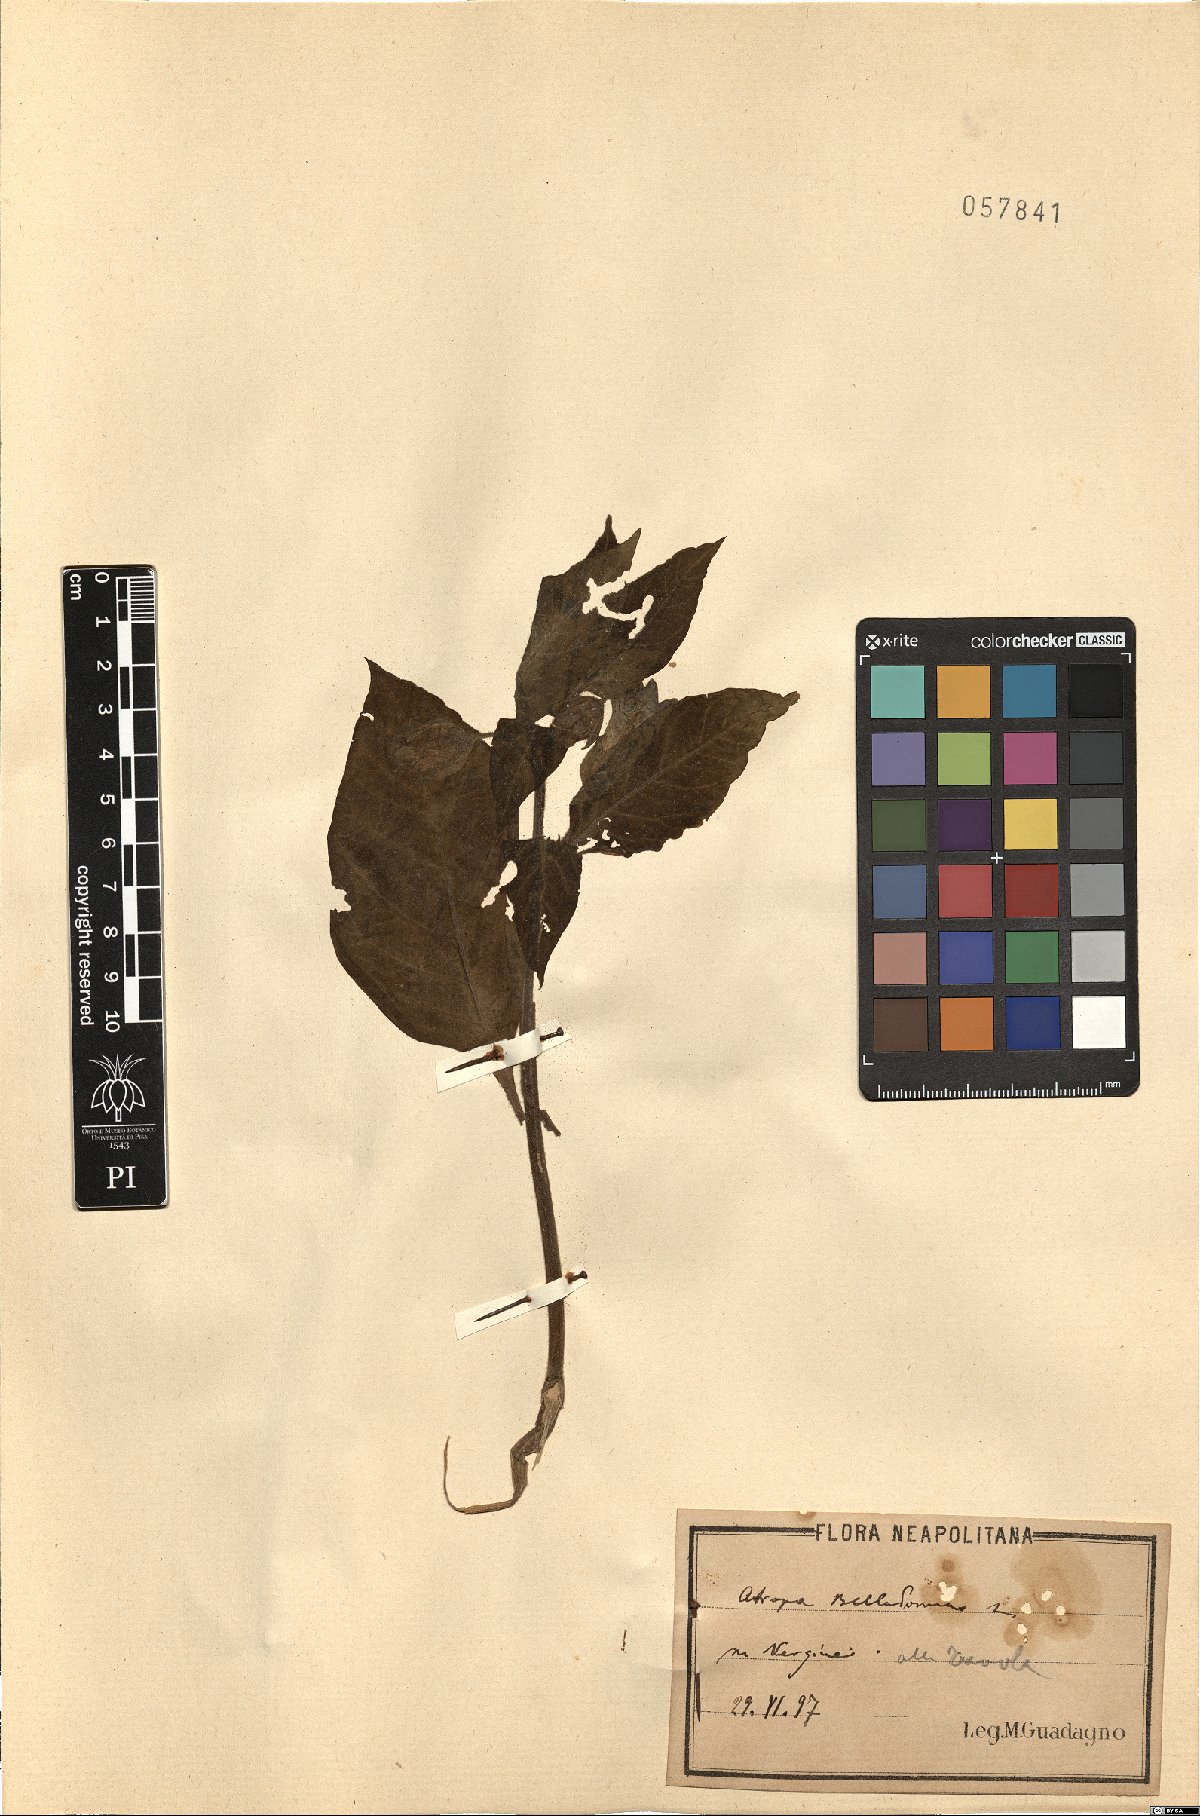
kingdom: Plantae
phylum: Tracheophyta
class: Magnoliopsida
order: Solanales
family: Solanaceae
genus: Atropa
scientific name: Atropa belladonna
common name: Deadly nightshade
